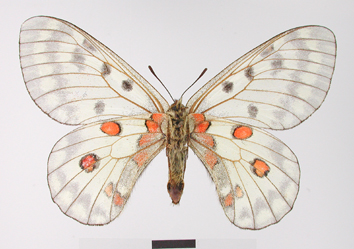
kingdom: Animalia
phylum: Arthropoda
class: Insecta
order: Lepidoptera
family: Papilionidae
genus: Parnassius
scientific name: Parnassius bremeri
